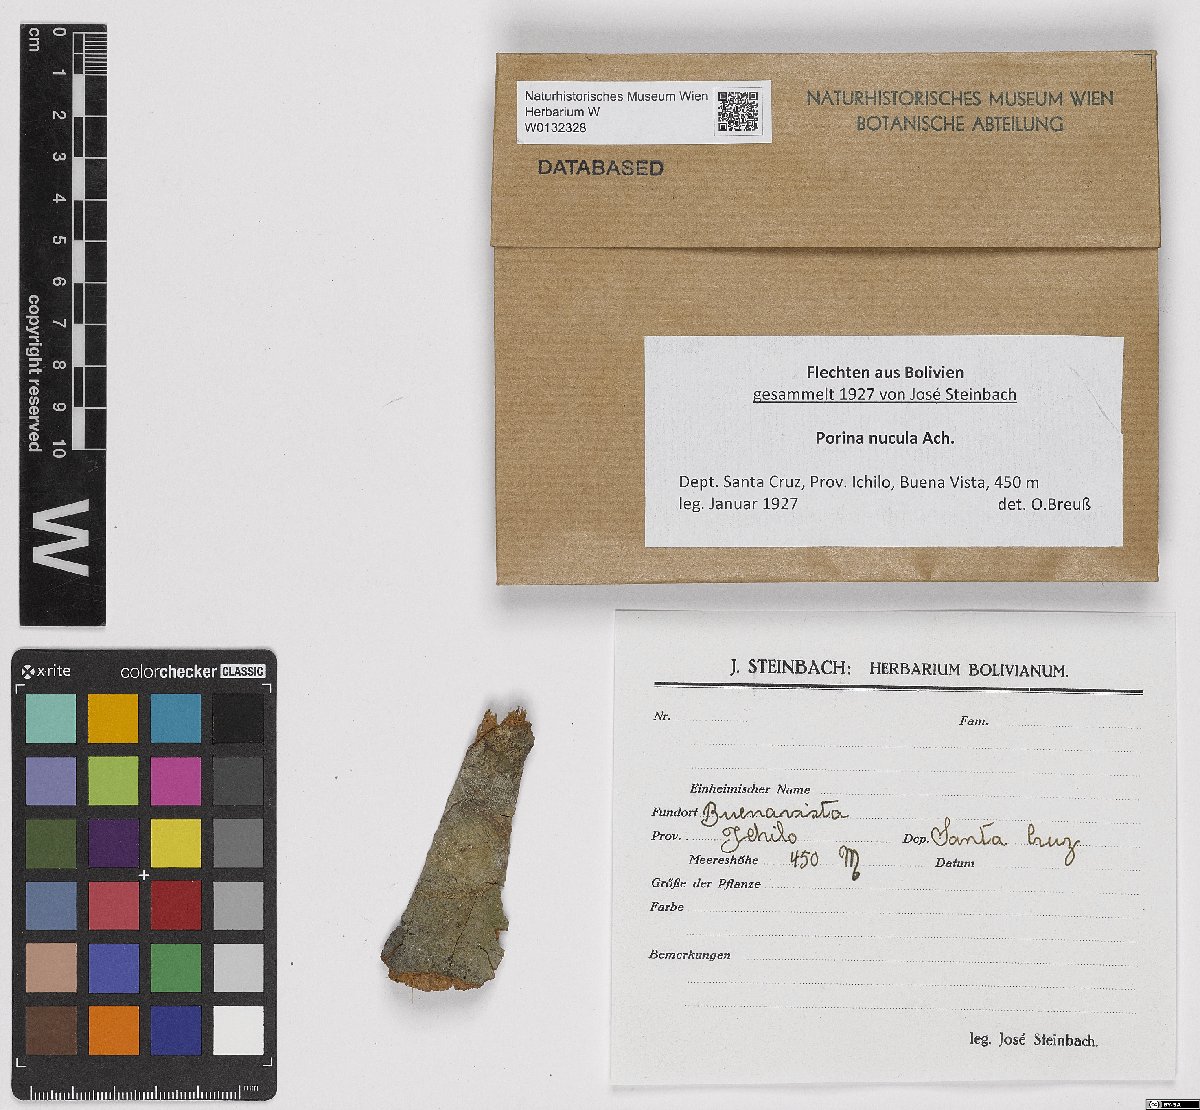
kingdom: Fungi
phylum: Ascomycota
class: Lecanoromycetes
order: Pertusariales
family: Pertusariaceae
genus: Porina
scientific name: Porina nucula
